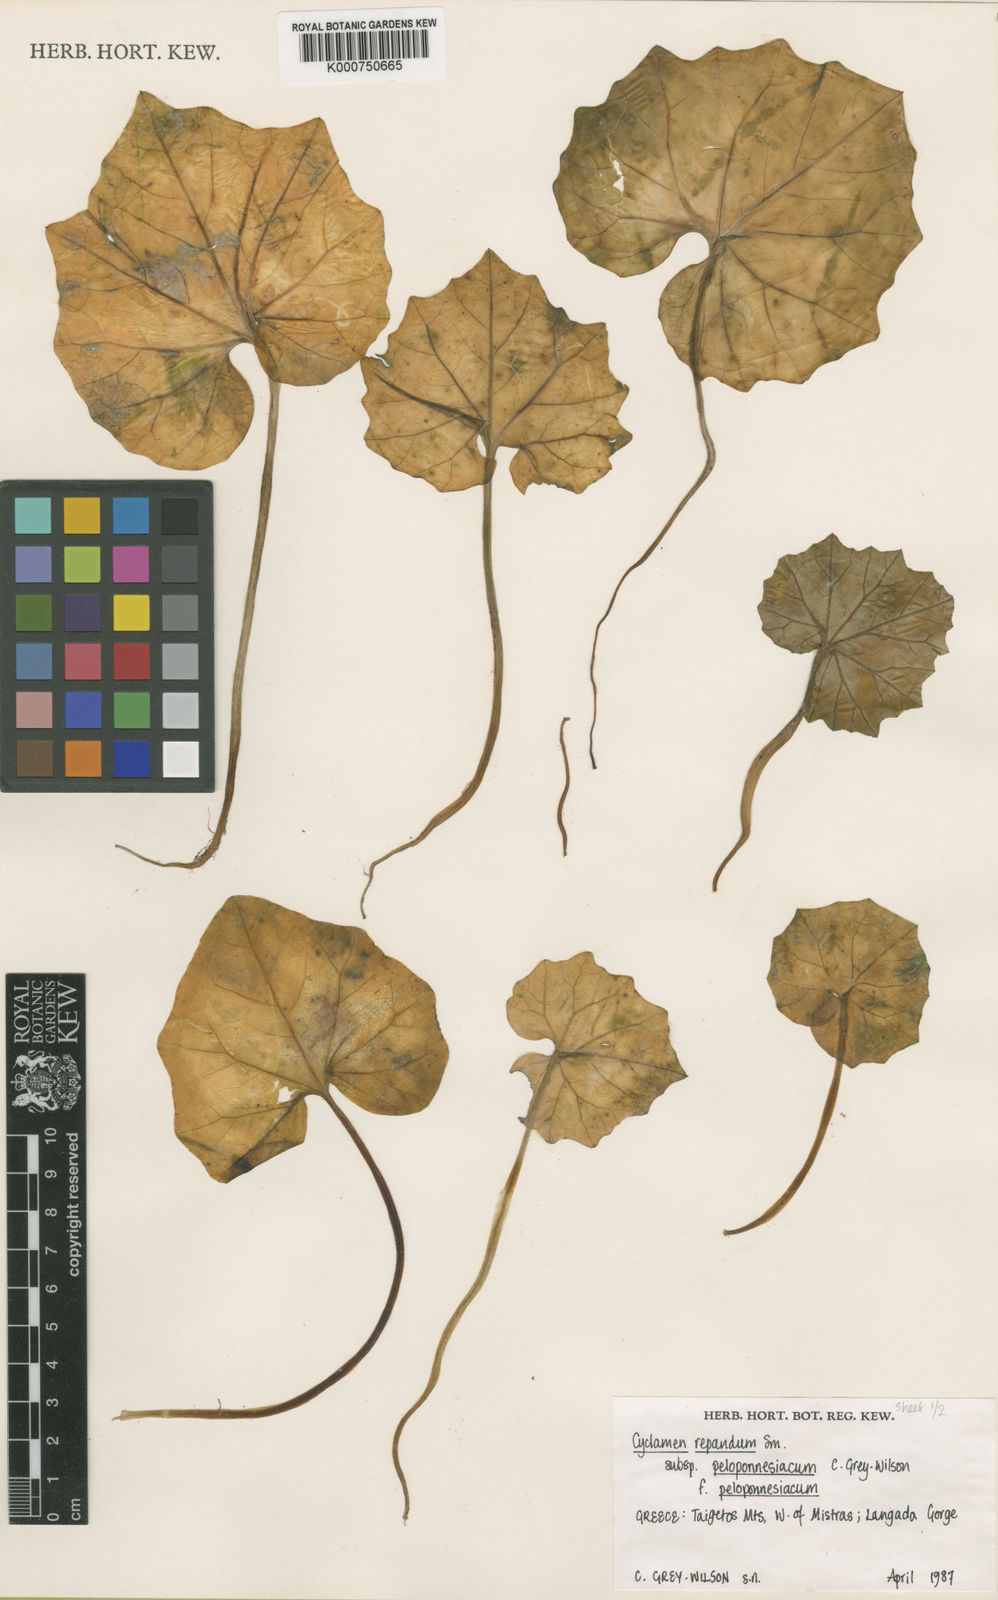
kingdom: Plantae
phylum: Tracheophyta
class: Magnoliopsida
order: Ericales
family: Primulaceae
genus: Cyclamen
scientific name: Cyclamen repandum
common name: Spring sowbread
